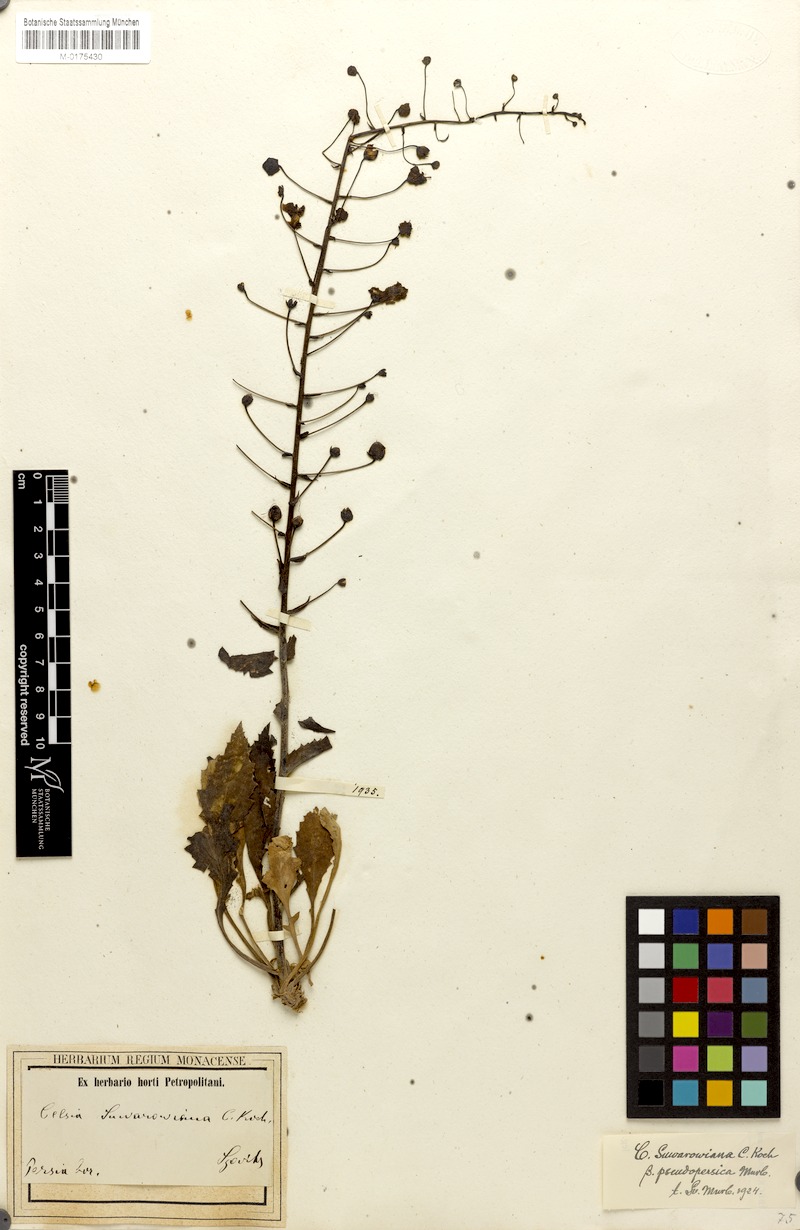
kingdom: Plantae
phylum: Tracheophyta
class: Magnoliopsida
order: Lamiales
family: Scrophulariaceae
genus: Verbascum
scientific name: Verbascum suworowianum
